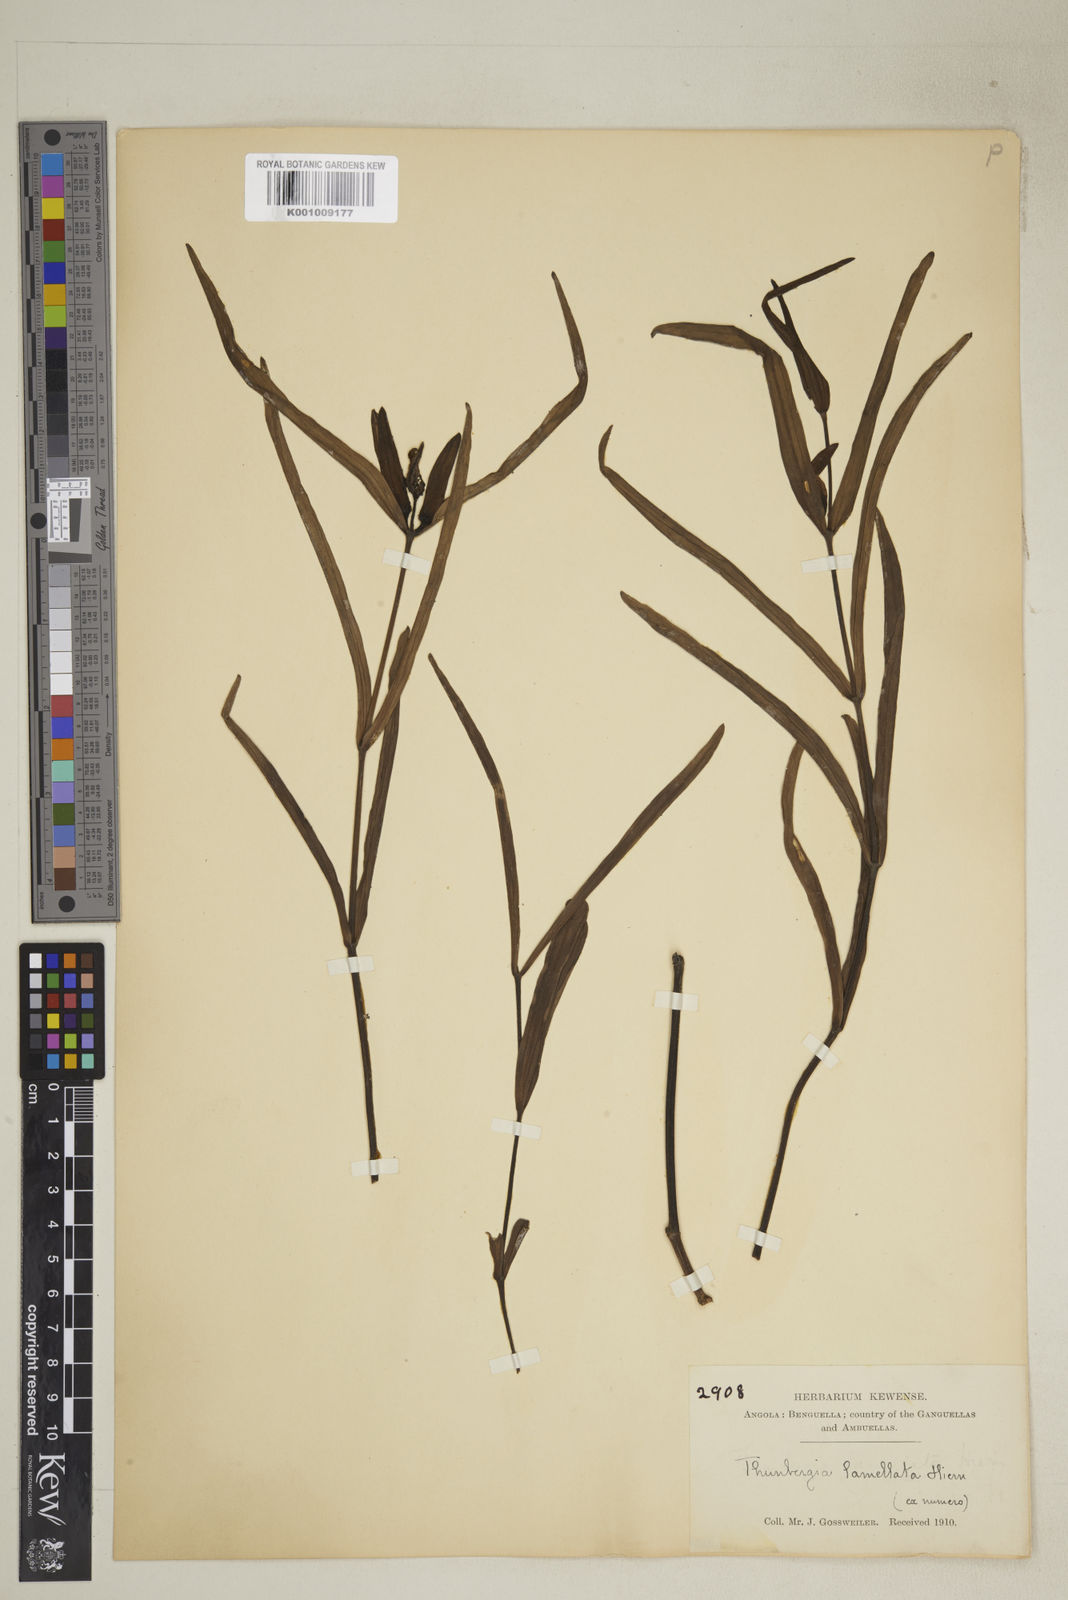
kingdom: Plantae
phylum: Tracheophyta
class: Magnoliopsida
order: Lamiales
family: Acanthaceae
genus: Thunbergia
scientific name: Thunbergia lamellata
